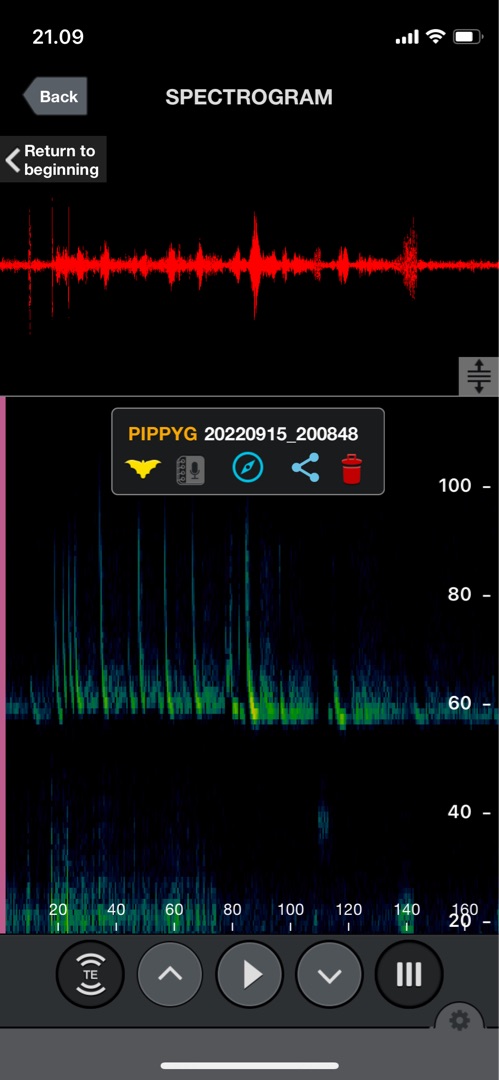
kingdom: Animalia
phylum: Chordata
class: Mammalia
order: Chiroptera
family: Vespertilionidae
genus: Pipistrellus
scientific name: Pipistrellus pygmaeus
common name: Dværgflagermus
